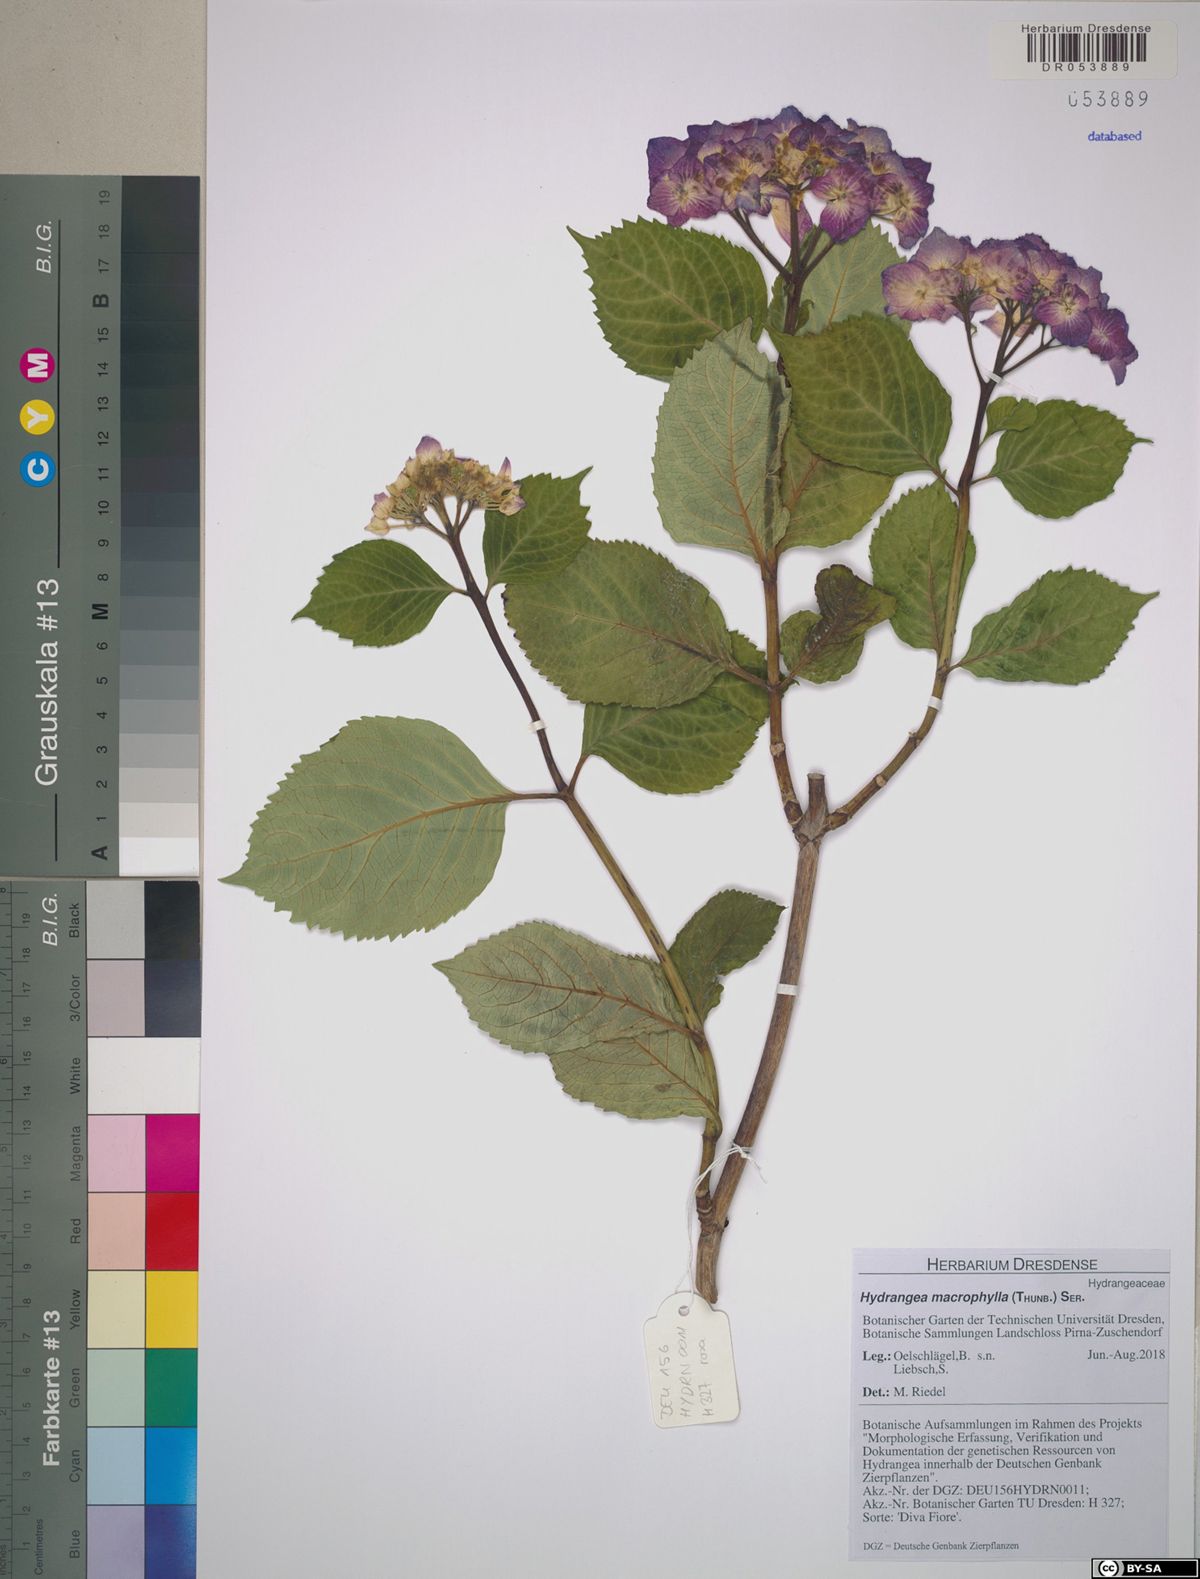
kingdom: Plantae
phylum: Tracheophyta
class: Magnoliopsida
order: Cornales
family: Hydrangeaceae
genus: Hydrangea
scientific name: Hydrangea macrophylla
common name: Hydrangea
